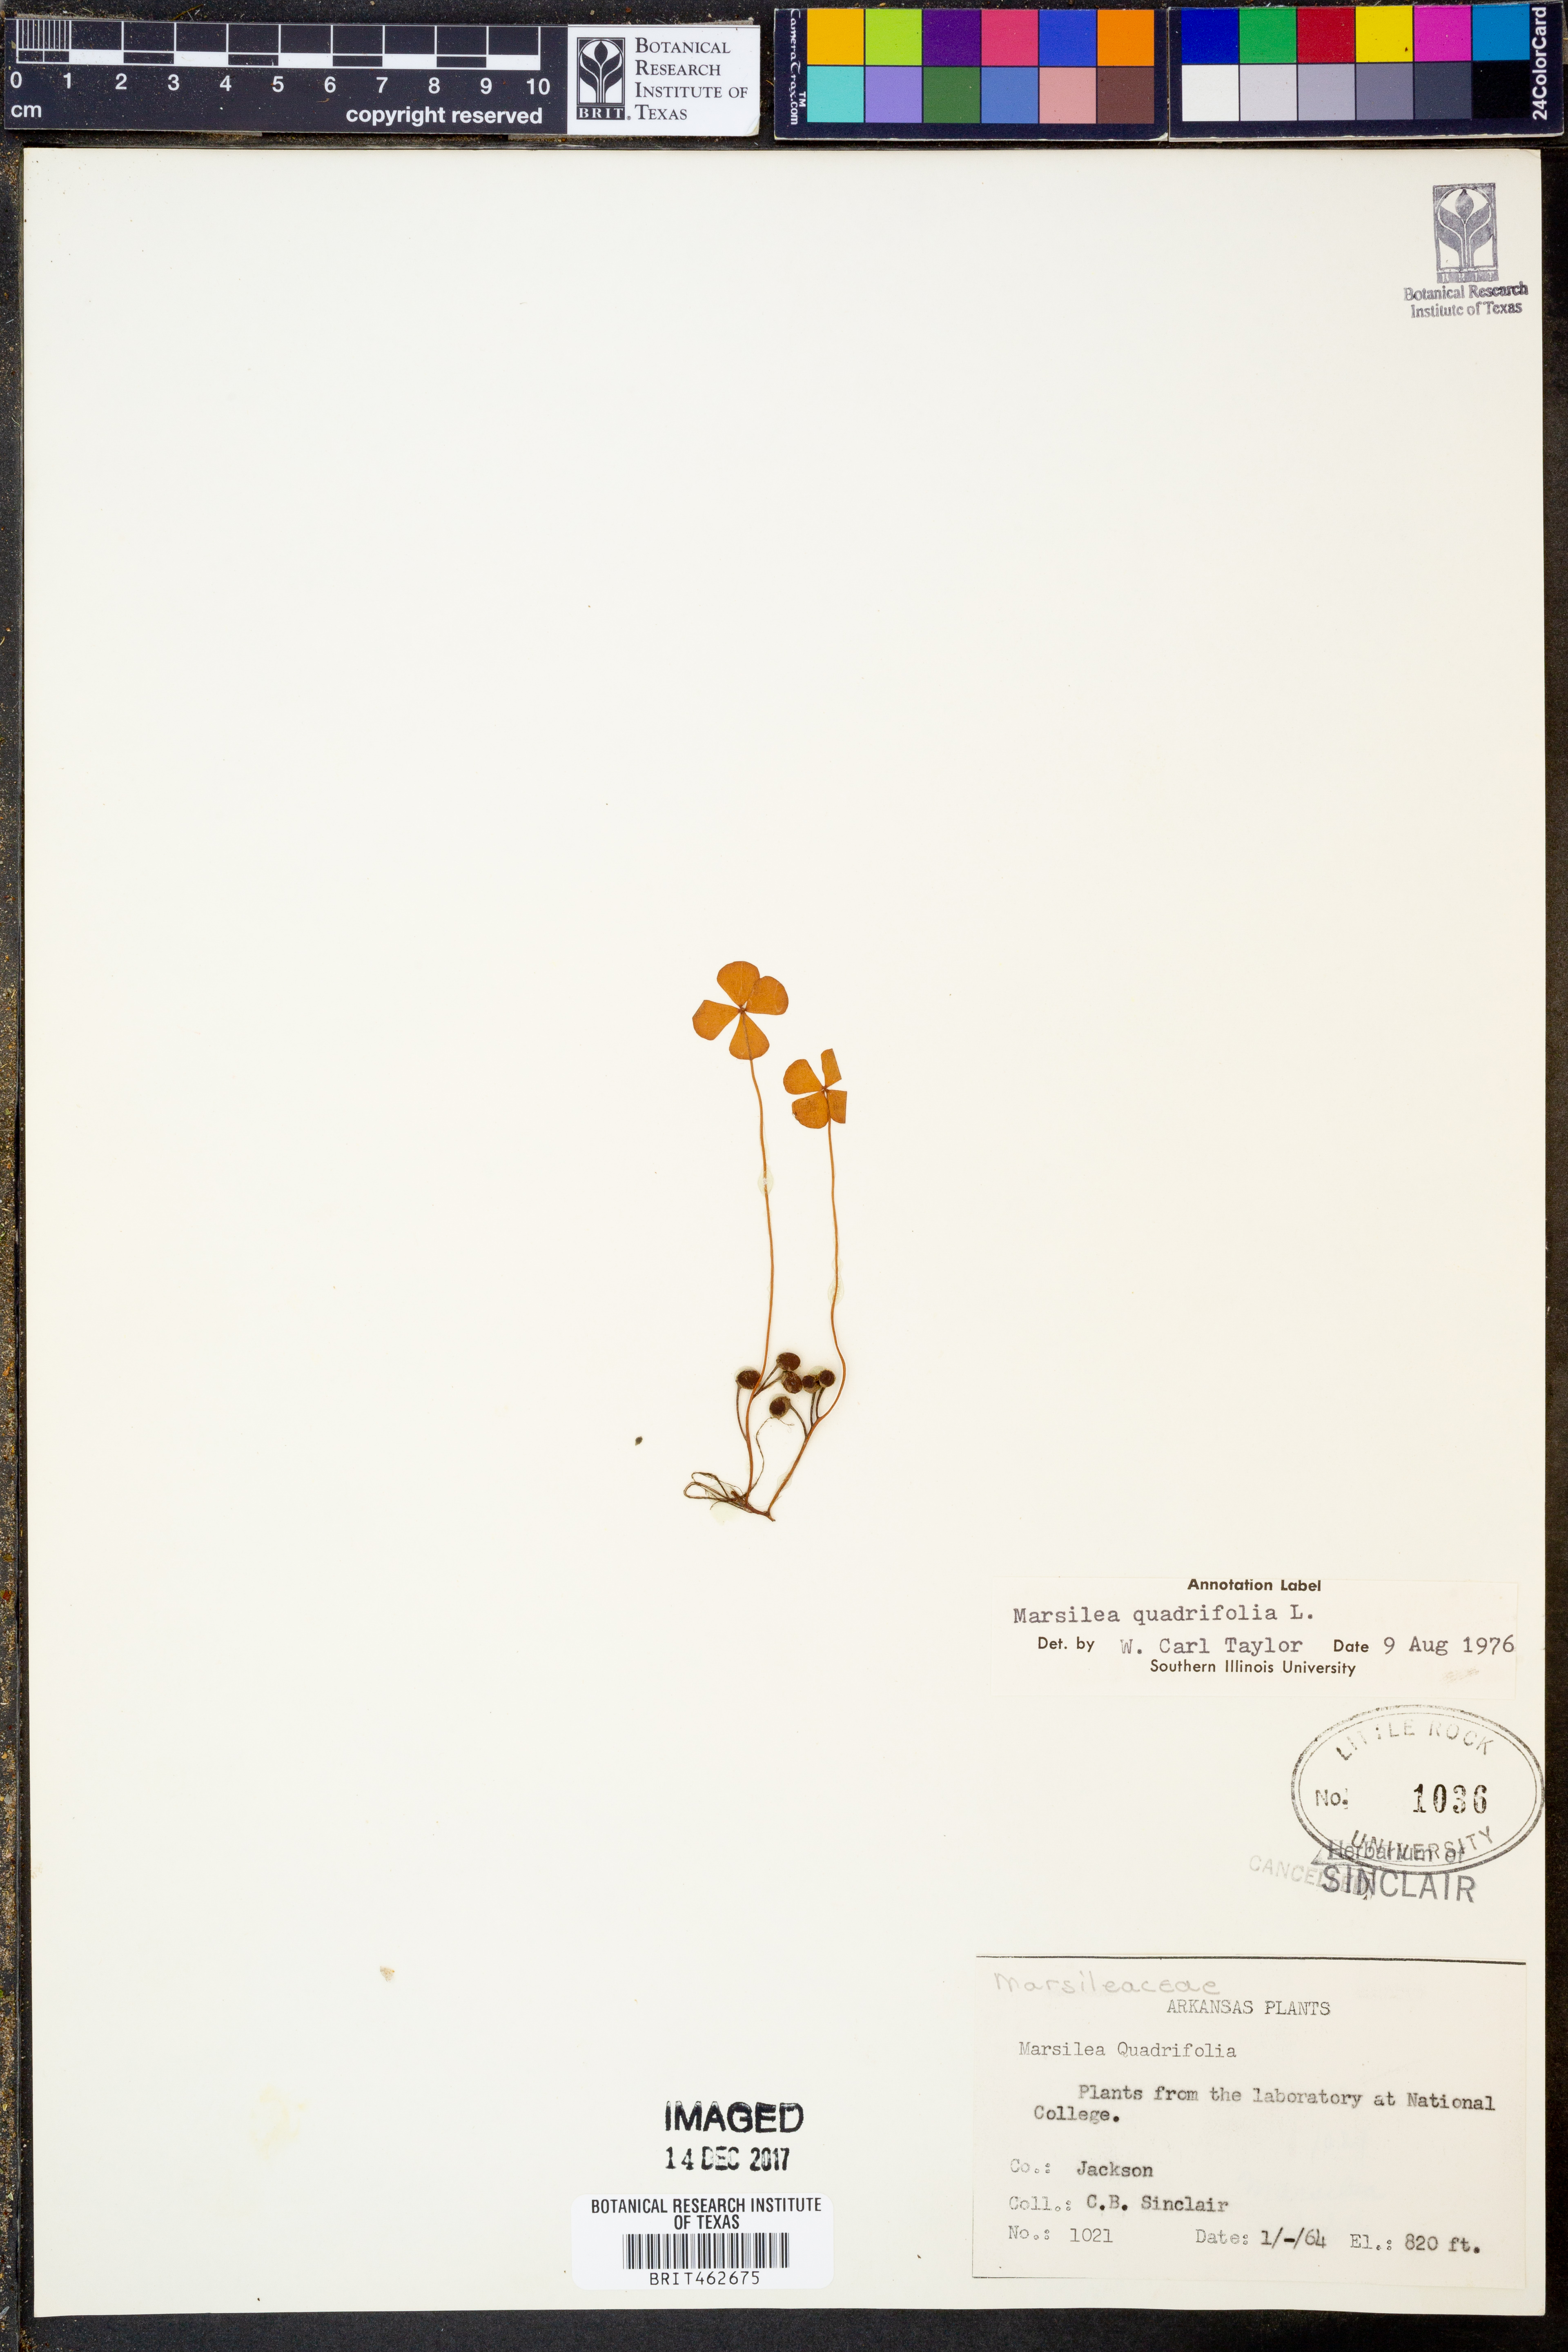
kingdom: Plantae
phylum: Tracheophyta
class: Polypodiopsida
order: Salviniales
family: Marsileaceae
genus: Marsilea
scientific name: Marsilea quadrifolia
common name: Water shamrock
